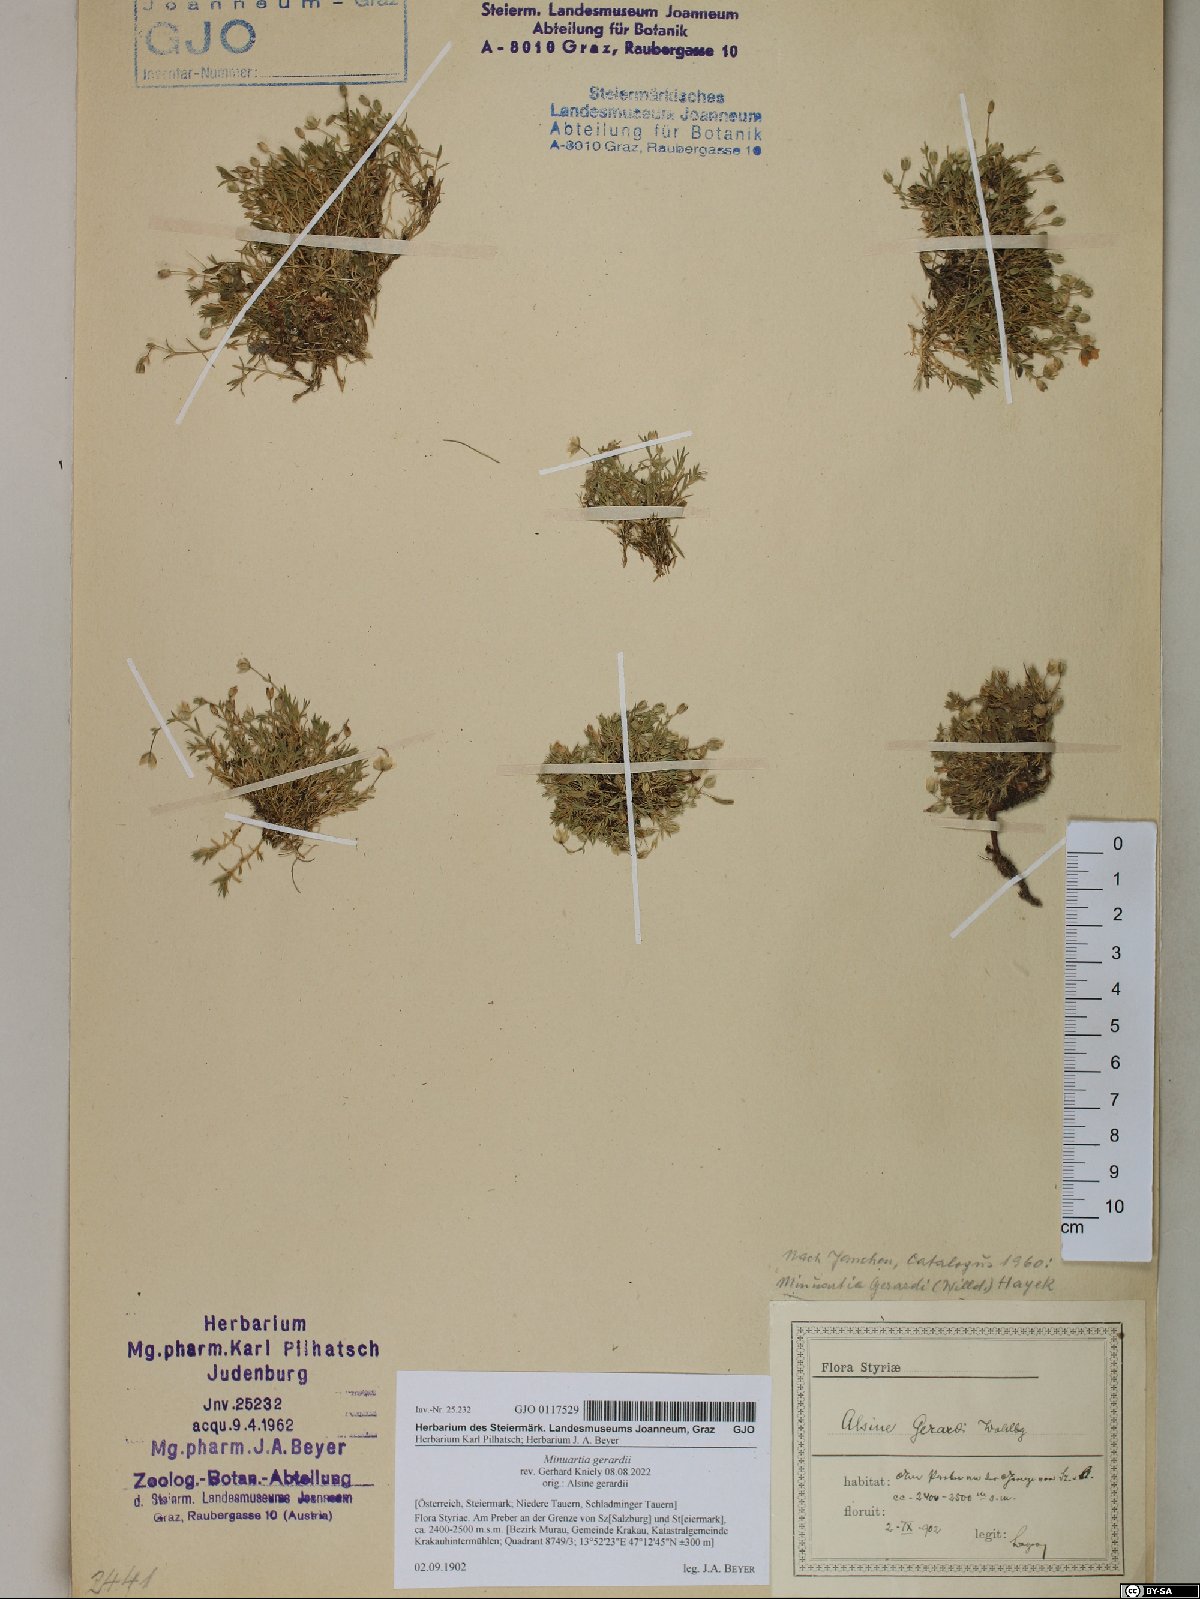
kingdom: Plantae
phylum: Tracheophyta
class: Magnoliopsida
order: Caryophyllales
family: Caryophyllaceae
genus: Sabulina
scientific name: Sabulina verna
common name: Spring sandwort
